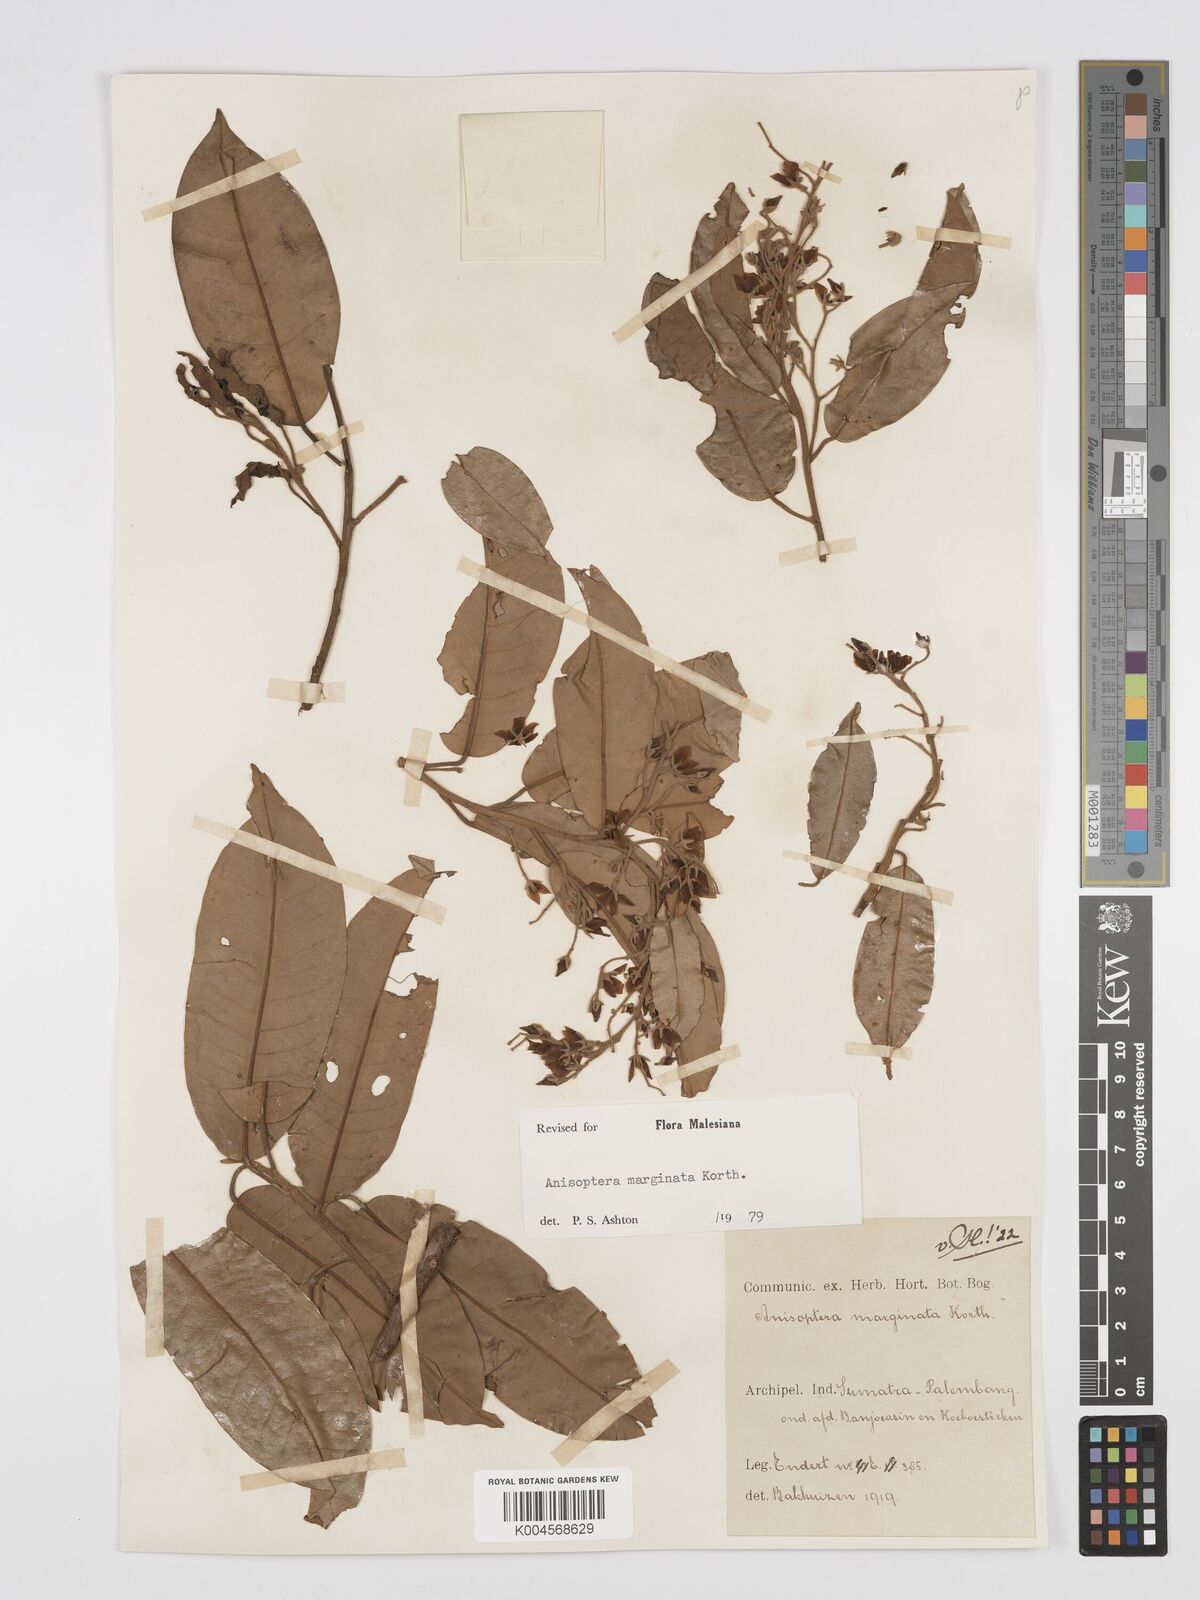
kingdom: Plantae
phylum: Tracheophyta
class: Magnoliopsida
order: Malvales
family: Dipterocarpaceae
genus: Anisoptera
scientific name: Anisoptera marginata
